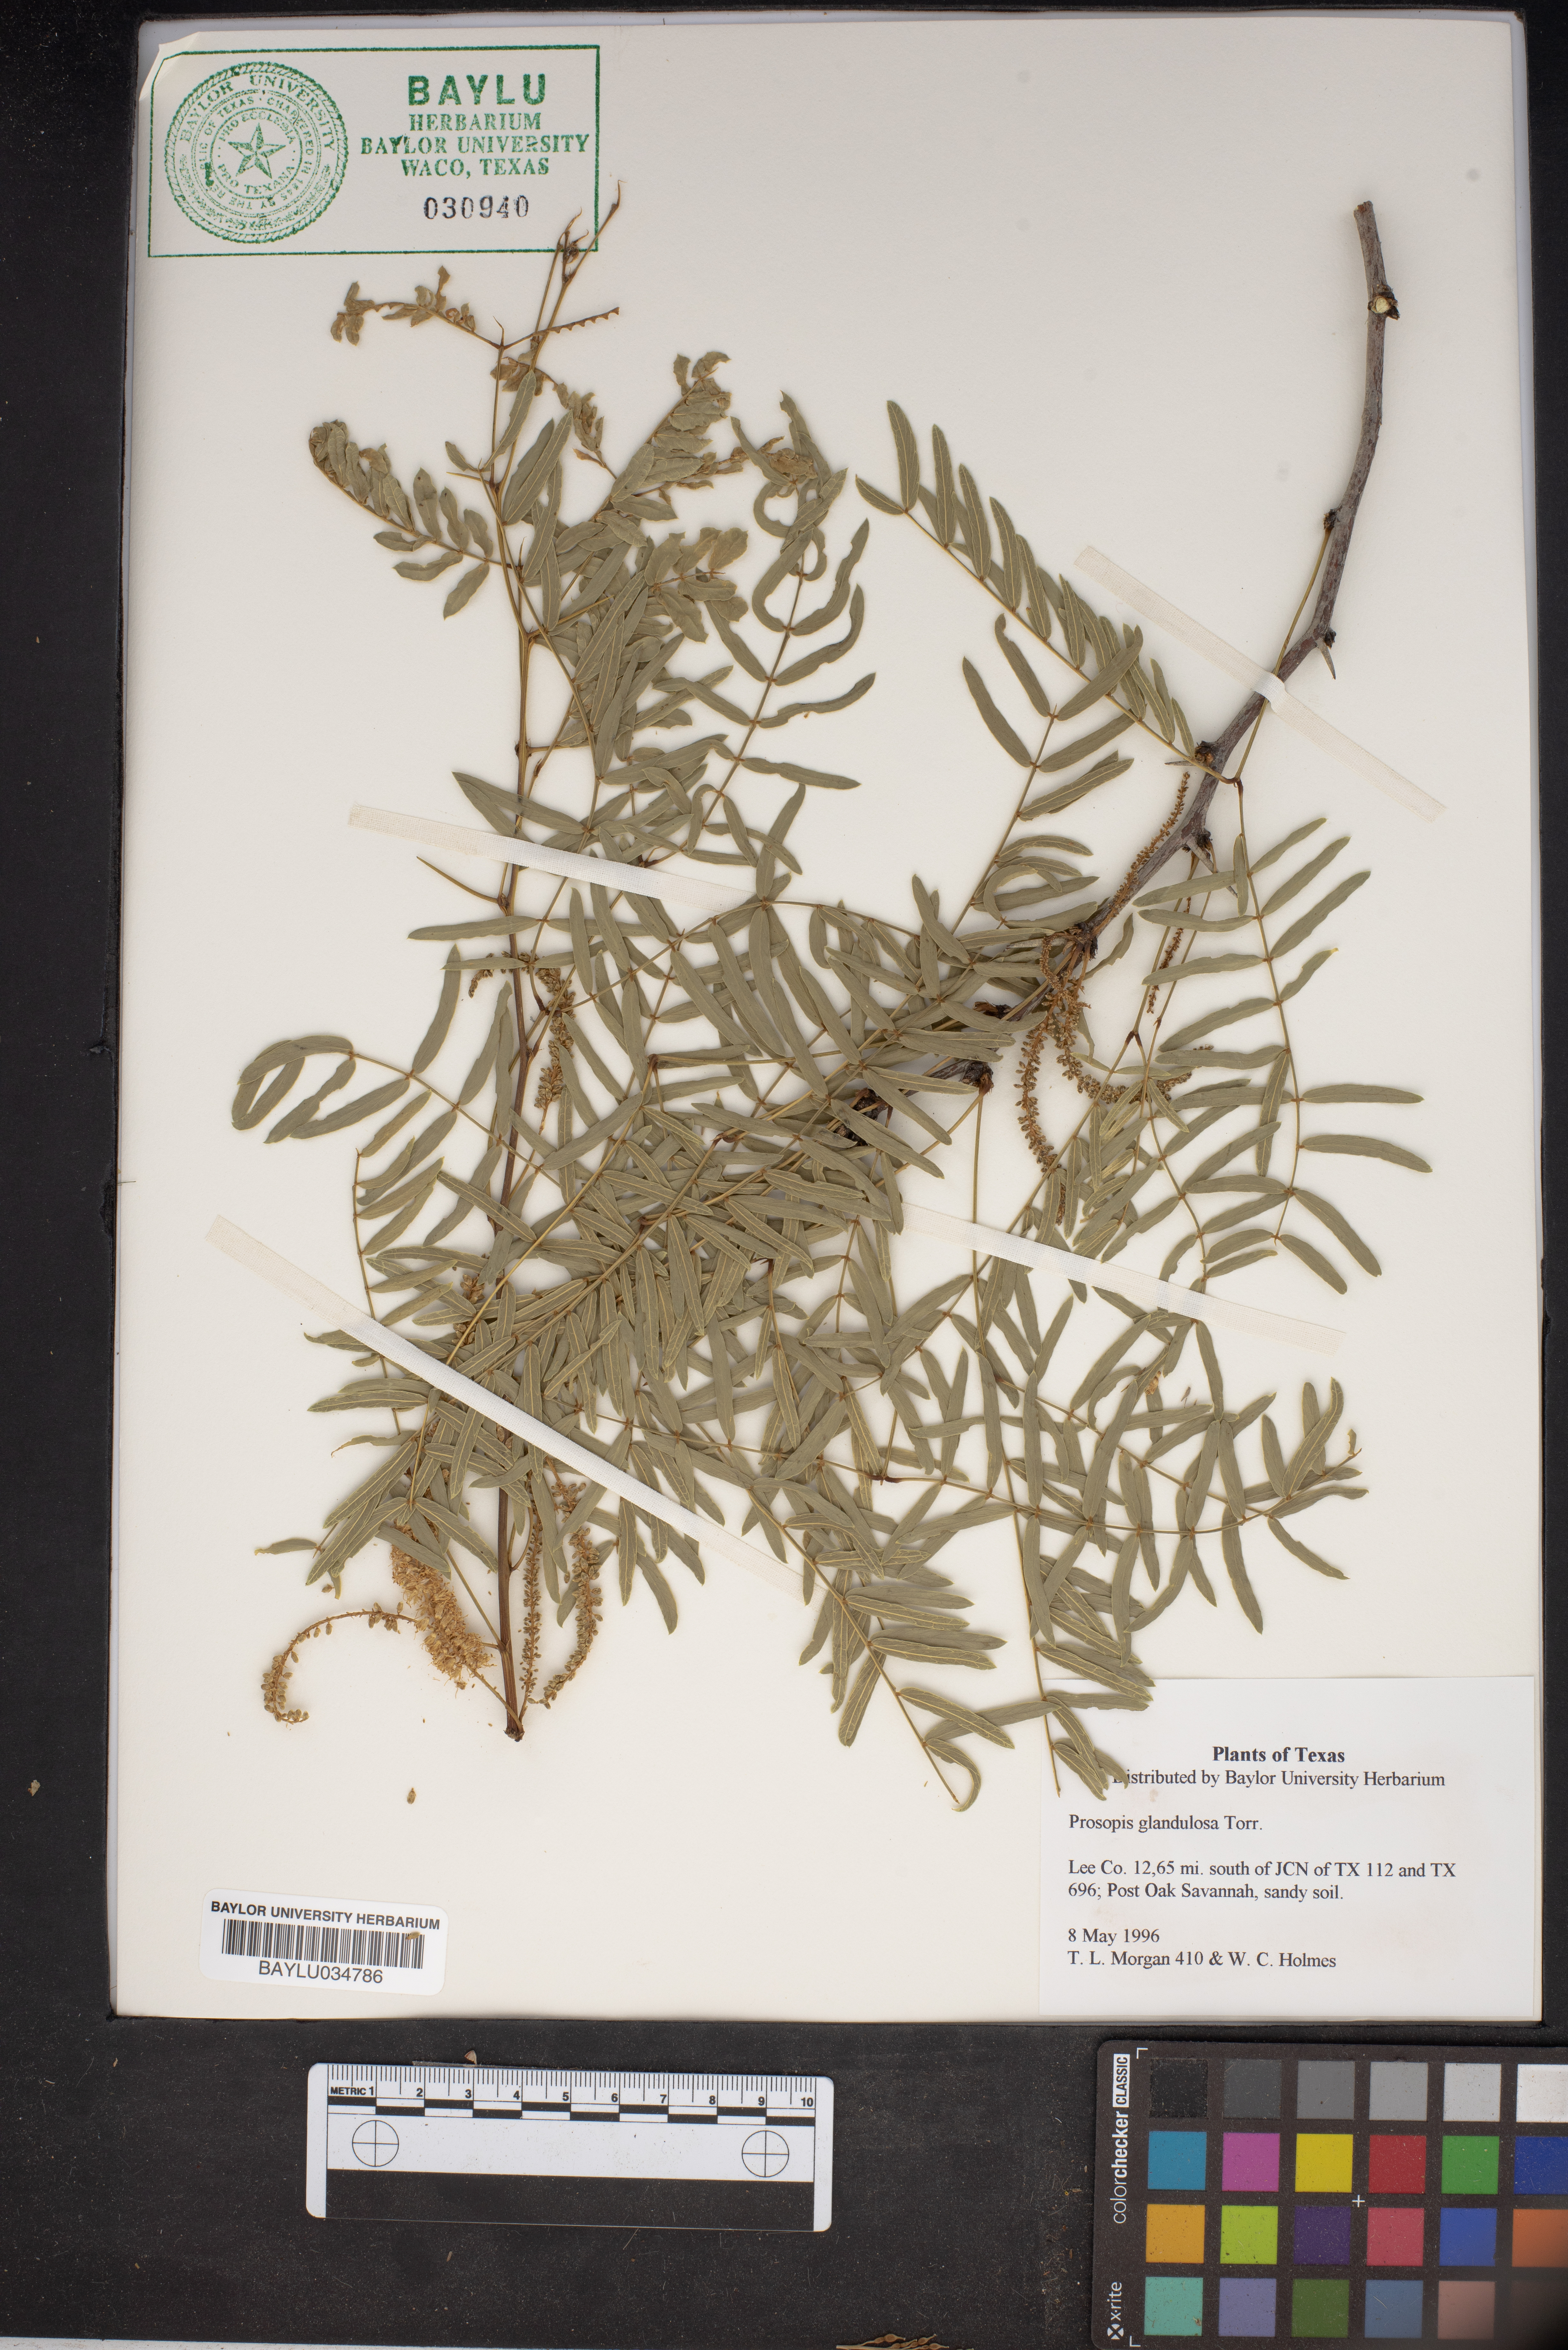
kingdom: Plantae
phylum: Tracheophyta
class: Magnoliopsida
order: Fabales
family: Fabaceae
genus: Prosopis
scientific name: Prosopis glandulosa
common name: Honey mesquite
